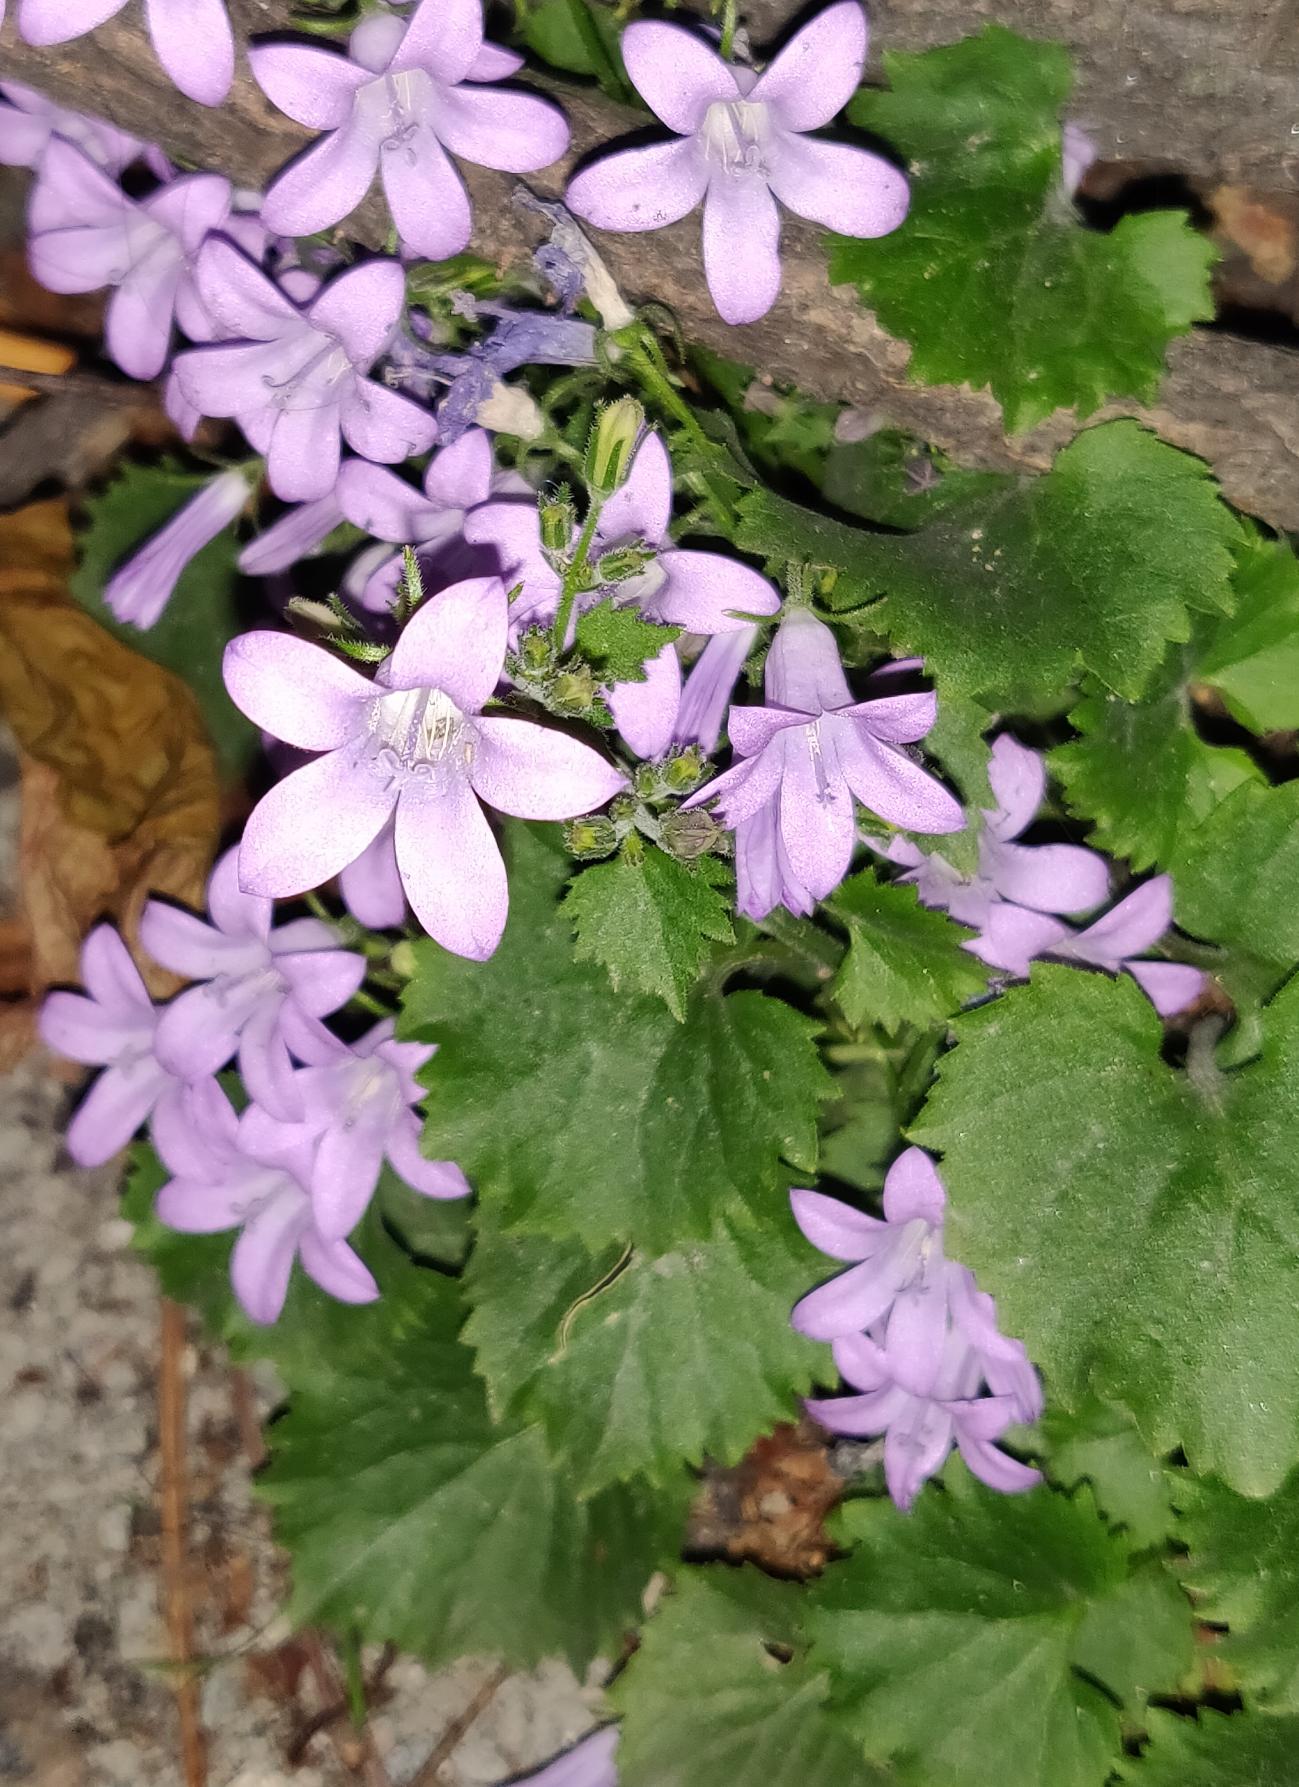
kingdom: Plantae
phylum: Tracheophyta
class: Magnoliopsida
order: Asterales
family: Campanulaceae
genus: Campanula
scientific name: Campanula poscharskyana
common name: Stjerne-klokke
